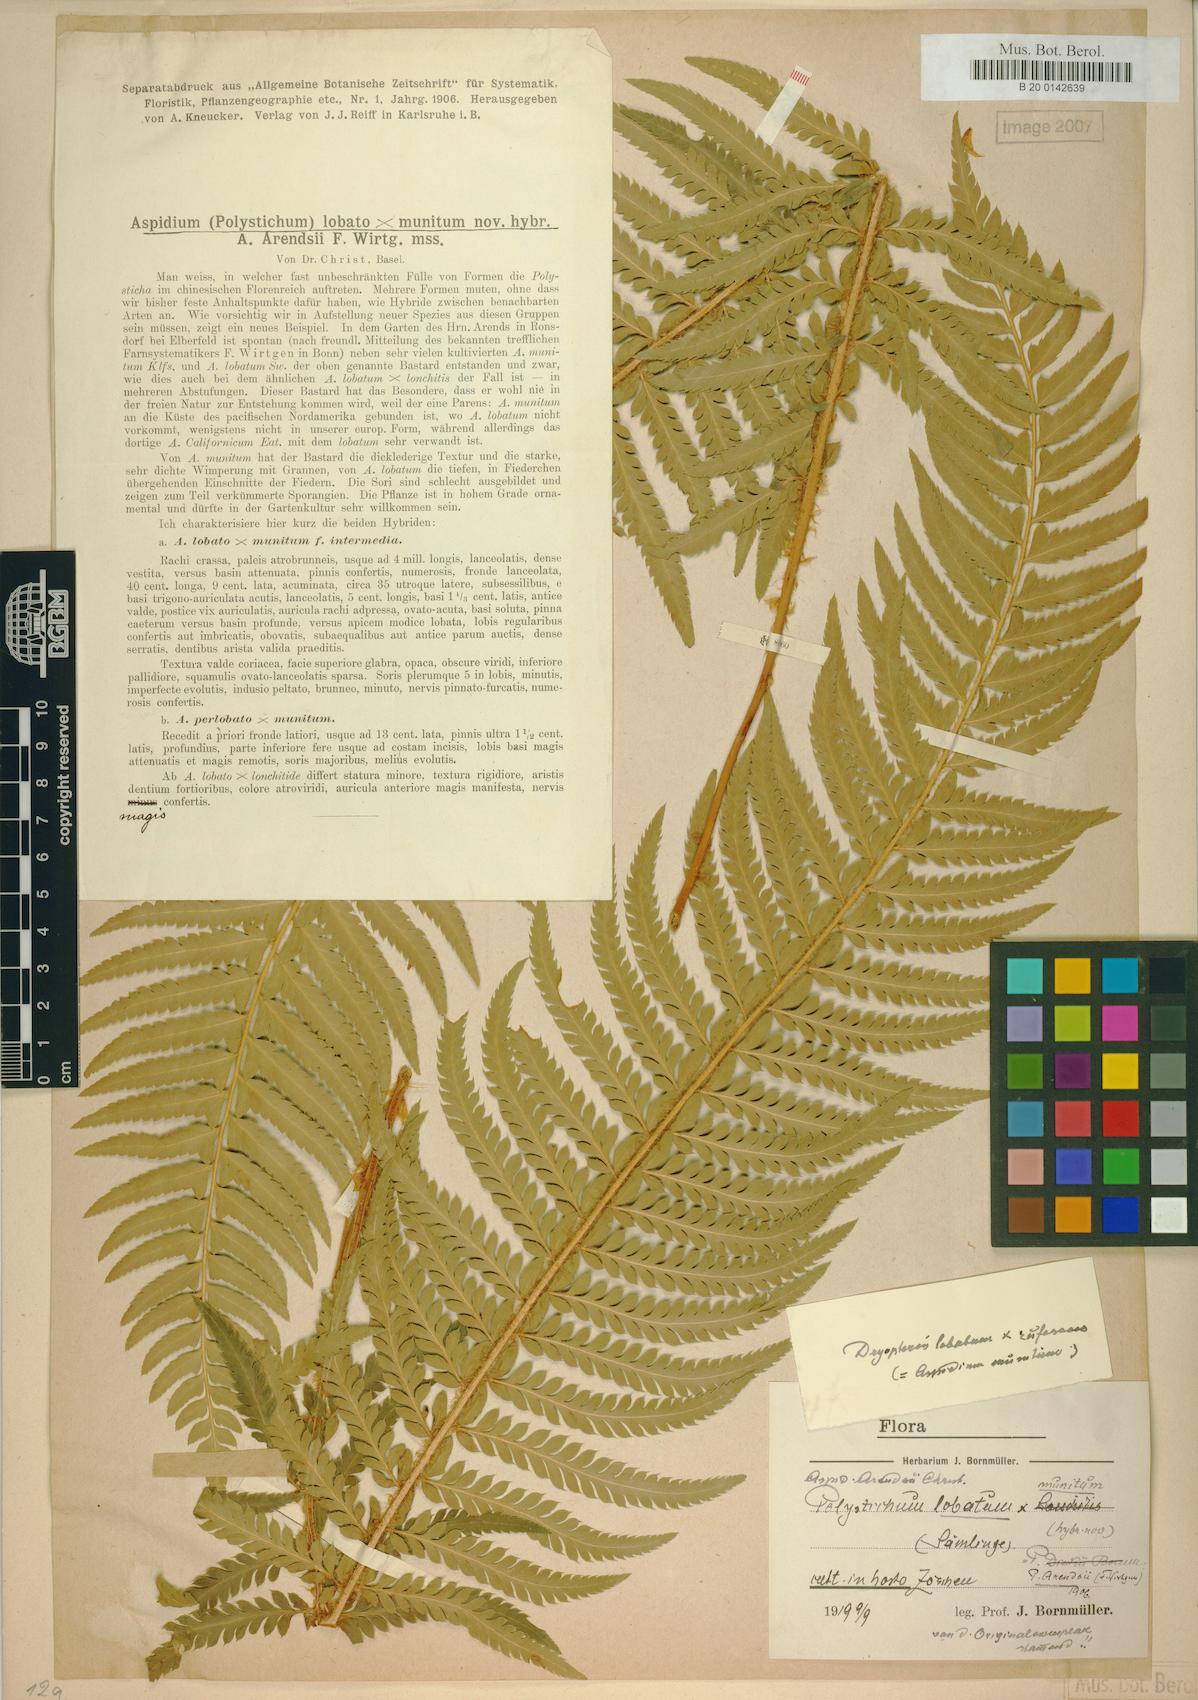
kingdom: Plantae
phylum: Tracheophyta
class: Polypodiopsida
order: Polypodiales
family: Dryopteridaceae
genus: Polystichum
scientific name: Polystichum
